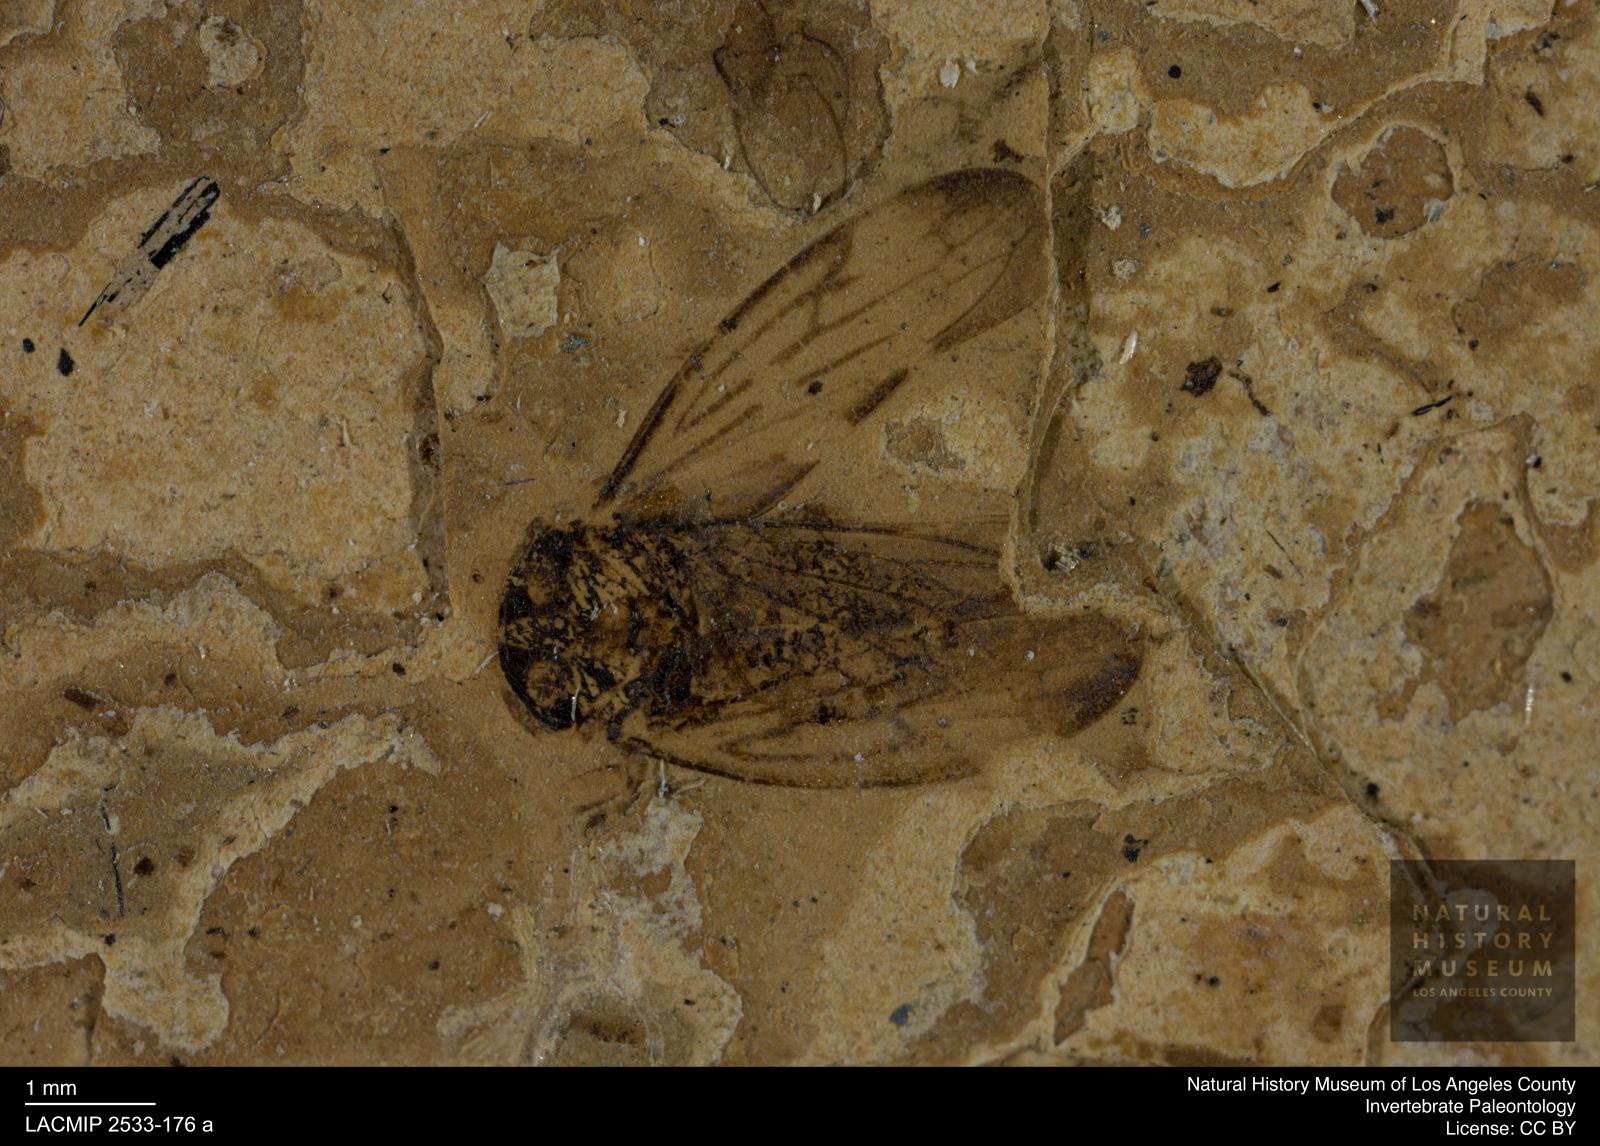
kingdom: Animalia
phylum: Arthropoda
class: Insecta
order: Hemiptera
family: Cicadellidae
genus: Idiocerus
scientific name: Idiocerus goeckei
